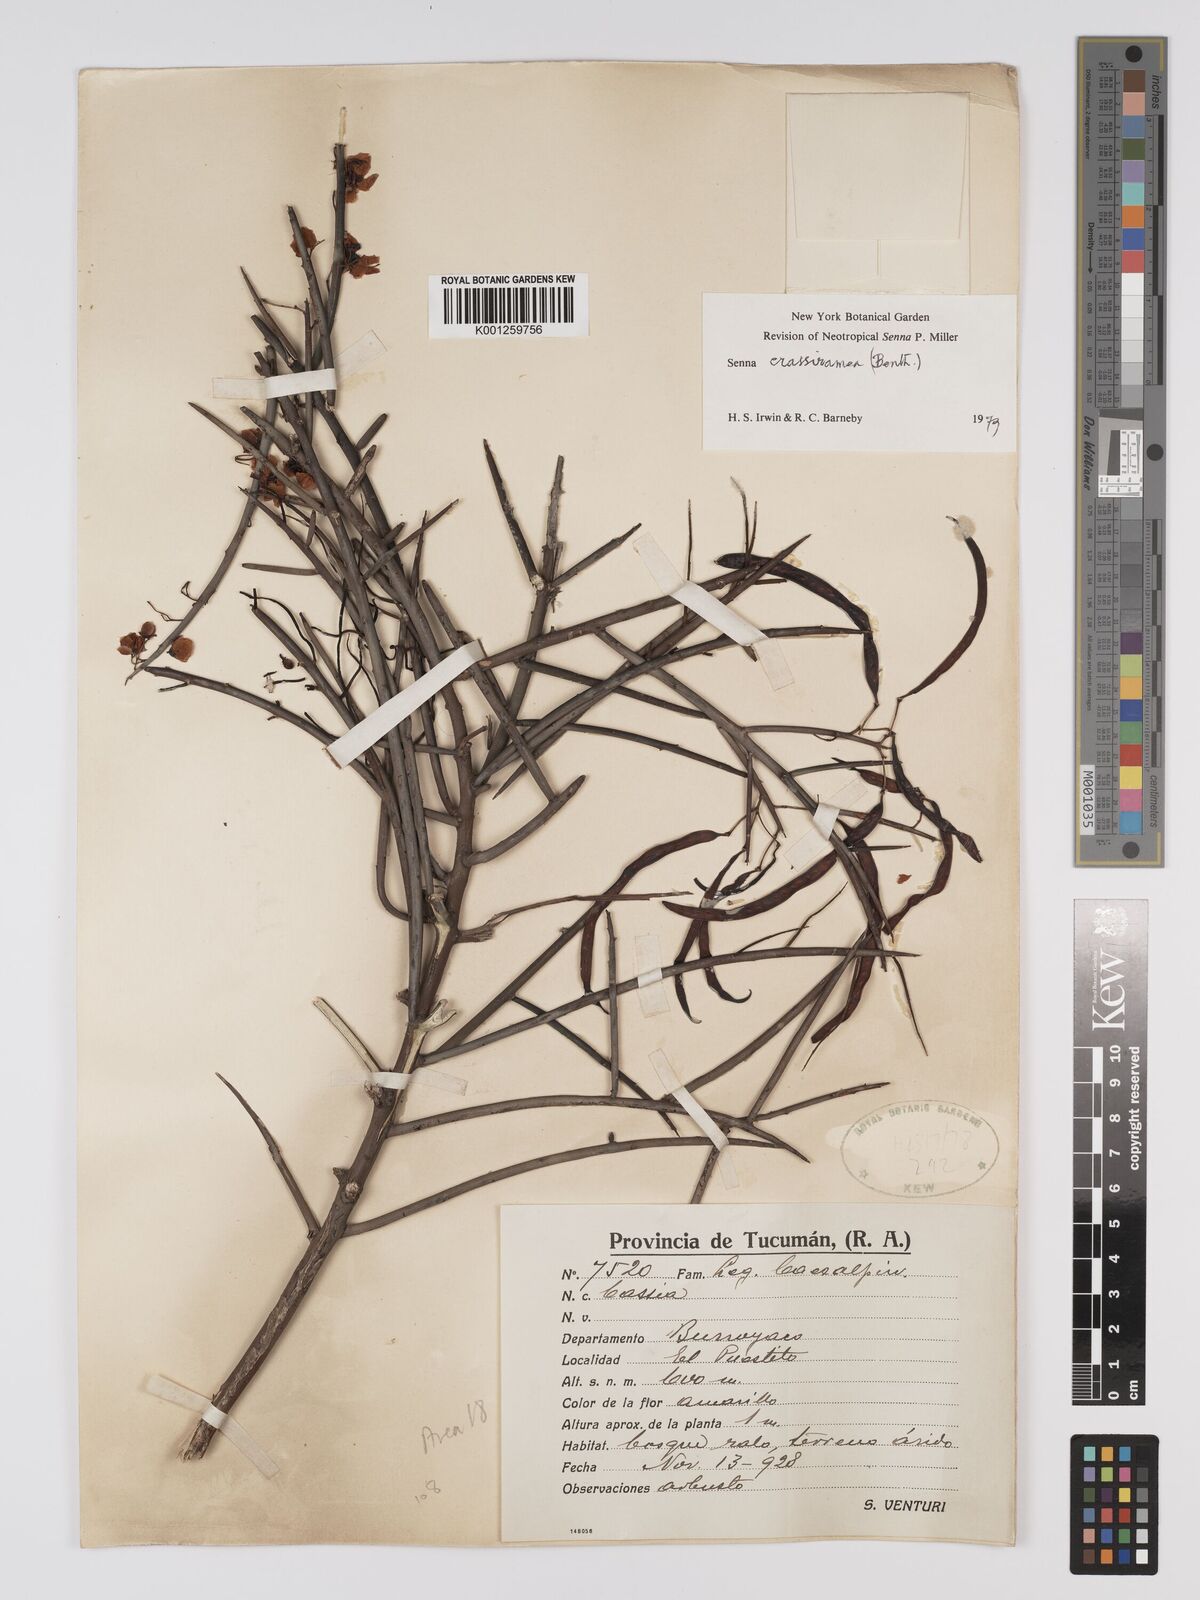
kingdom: Plantae
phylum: Tracheophyta
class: Magnoliopsida
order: Fabales
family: Fabaceae
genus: Senna
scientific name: Senna crassiramea
